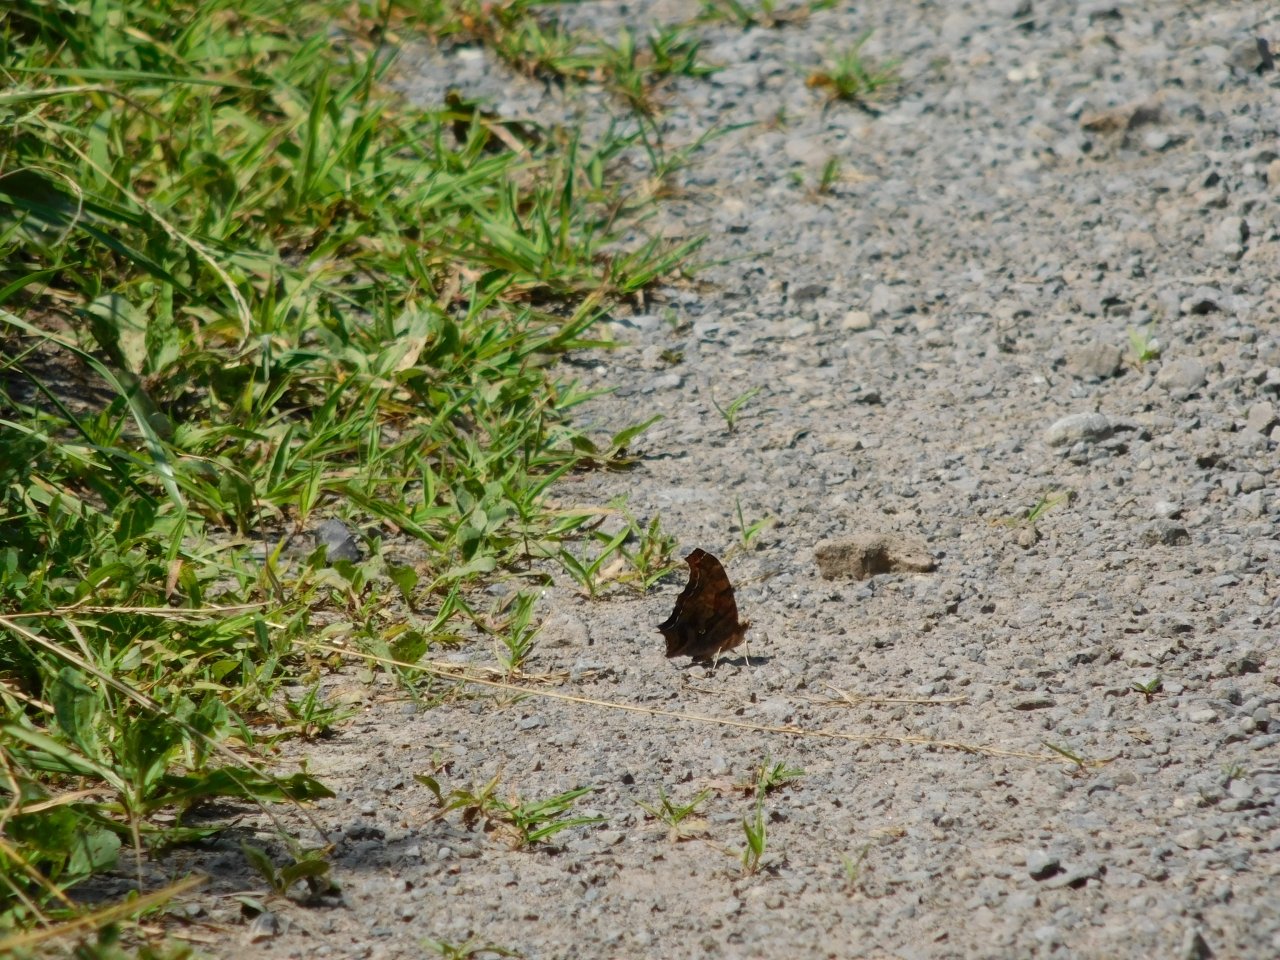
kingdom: Animalia
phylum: Arthropoda
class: Insecta
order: Lepidoptera
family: Nymphalidae
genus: Polygonia
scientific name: Polygonia interrogationis
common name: Question Mark
